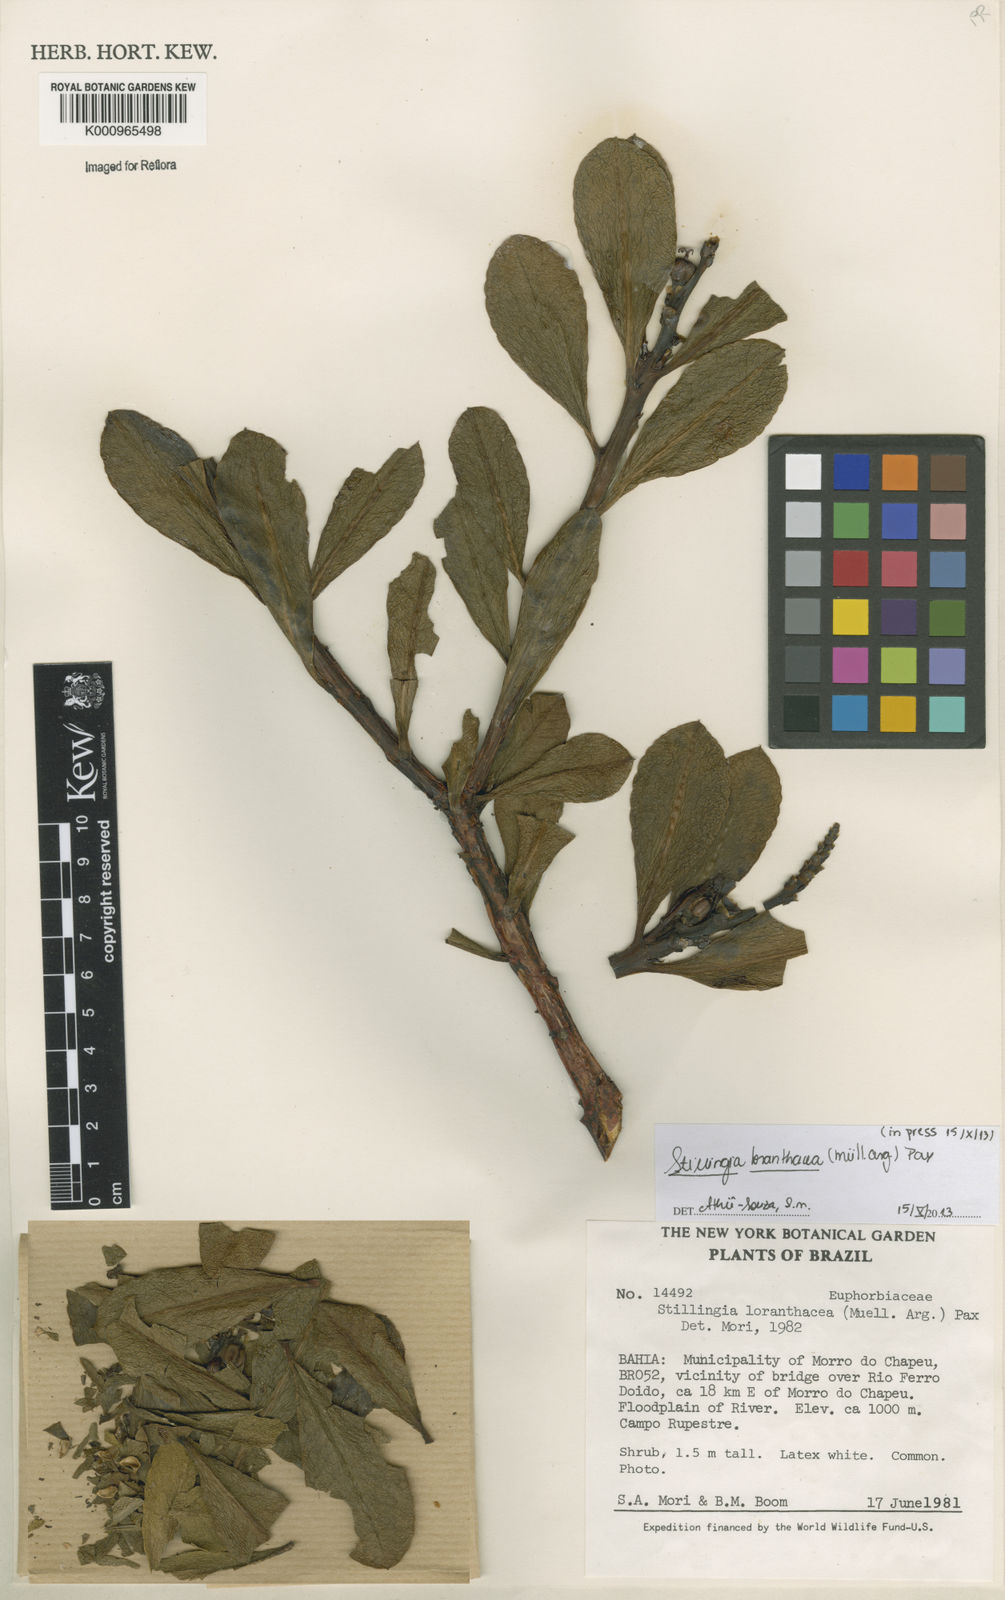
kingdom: Plantae
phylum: Tracheophyta
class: Magnoliopsida
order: Malpighiales
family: Euphorbiaceae
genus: Stillingia
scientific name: Stillingia saxatilis
